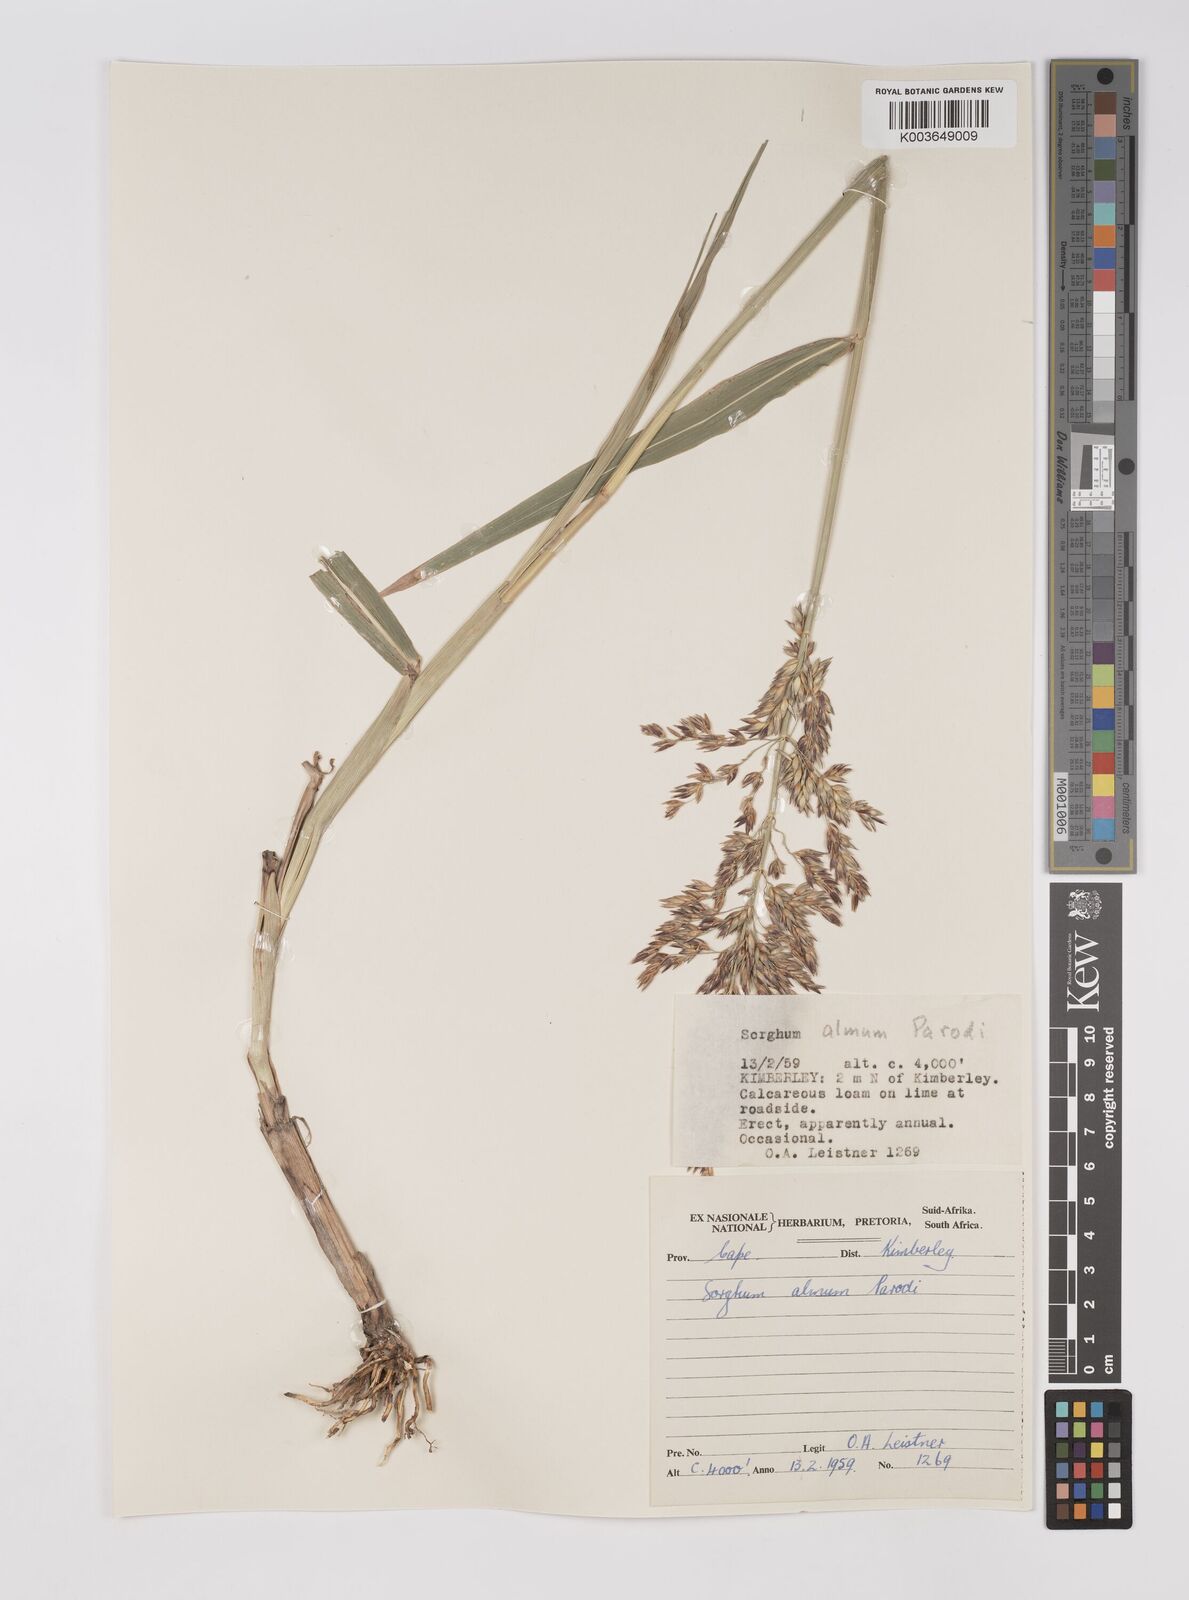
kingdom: Plantae
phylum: Tracheophyta
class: Liliopsida
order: Poales
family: Poaceae
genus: Sorghum
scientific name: Sorghum almum
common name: Columbus grass
